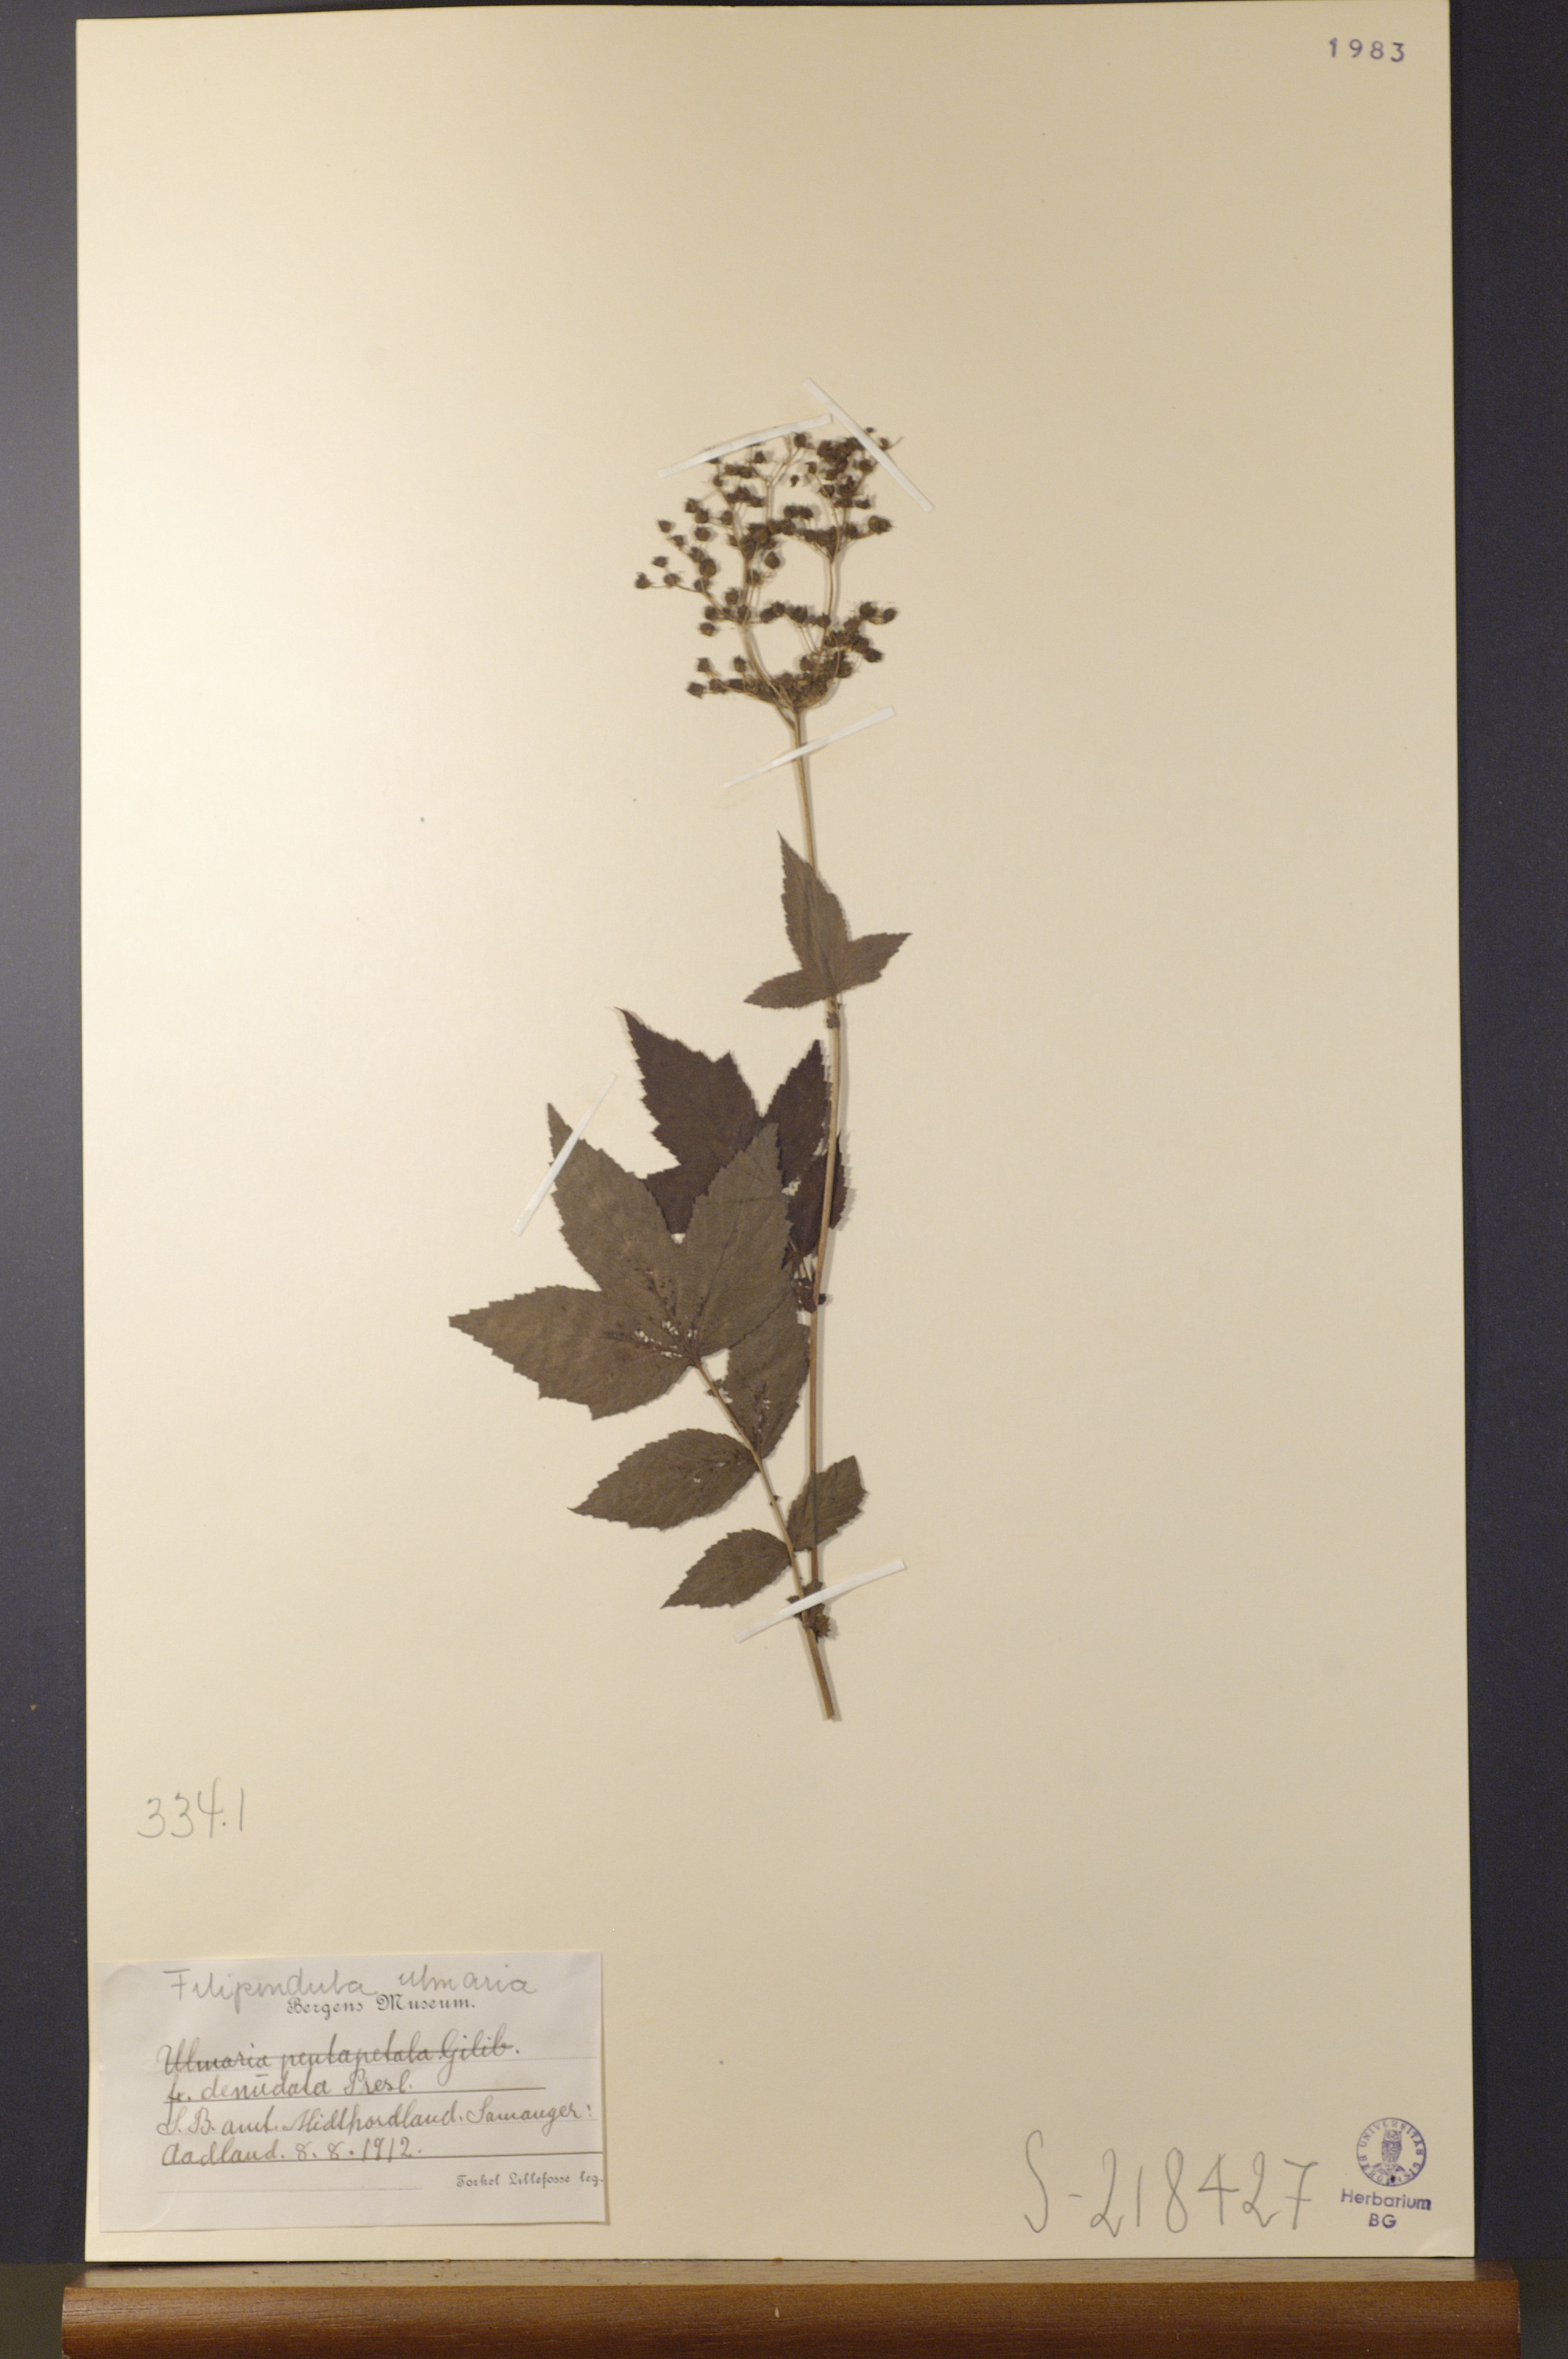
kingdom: Plantae
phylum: Tracheophyta
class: Magnoliopsida
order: Rosales
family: Rosaceae
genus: Filipendula
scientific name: Filipendula ulmaria
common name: Meadowsweet
